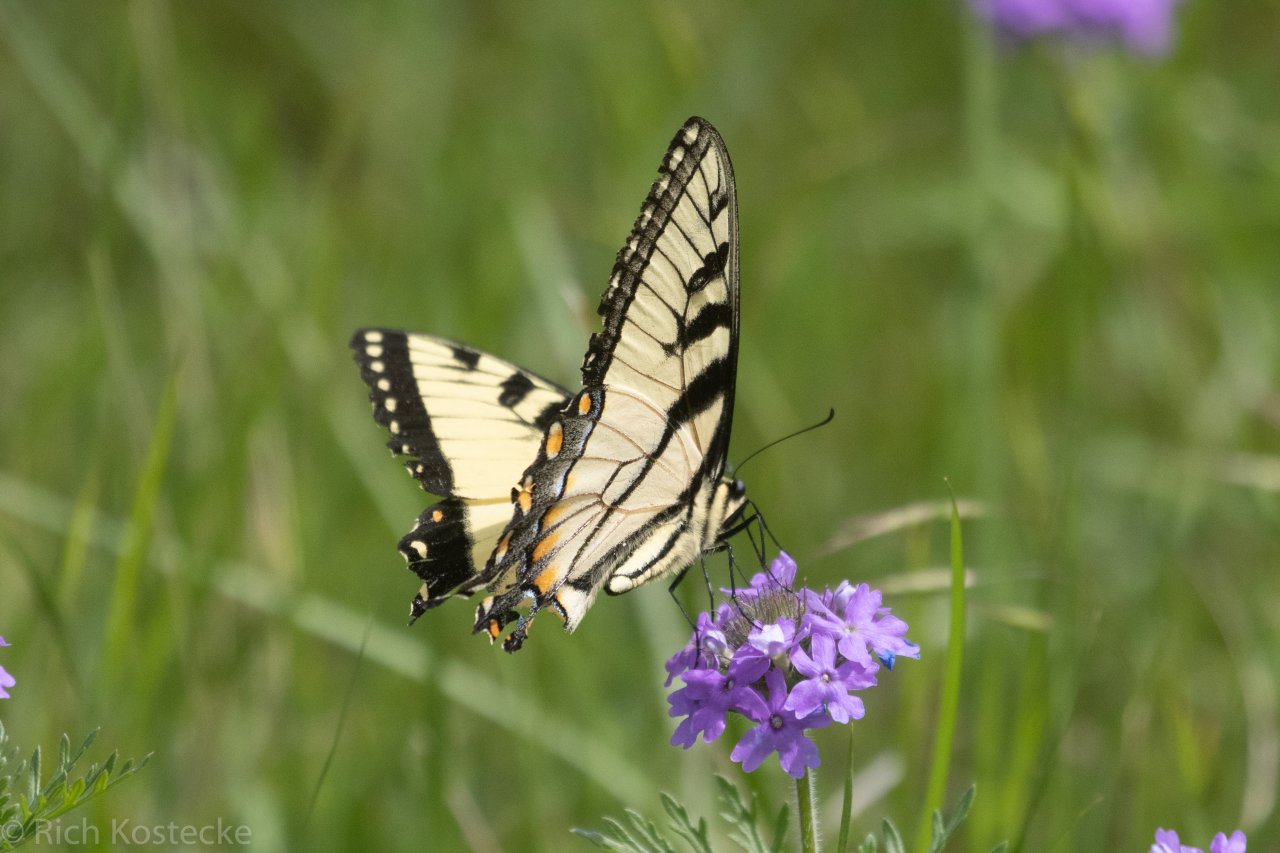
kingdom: Animalia
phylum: Arthropoda
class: Insecta
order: Lepidoptera
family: Papilionidae
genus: Pterourus
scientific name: Pterourus glaucus
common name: Eastern Tiger Swallowtail
